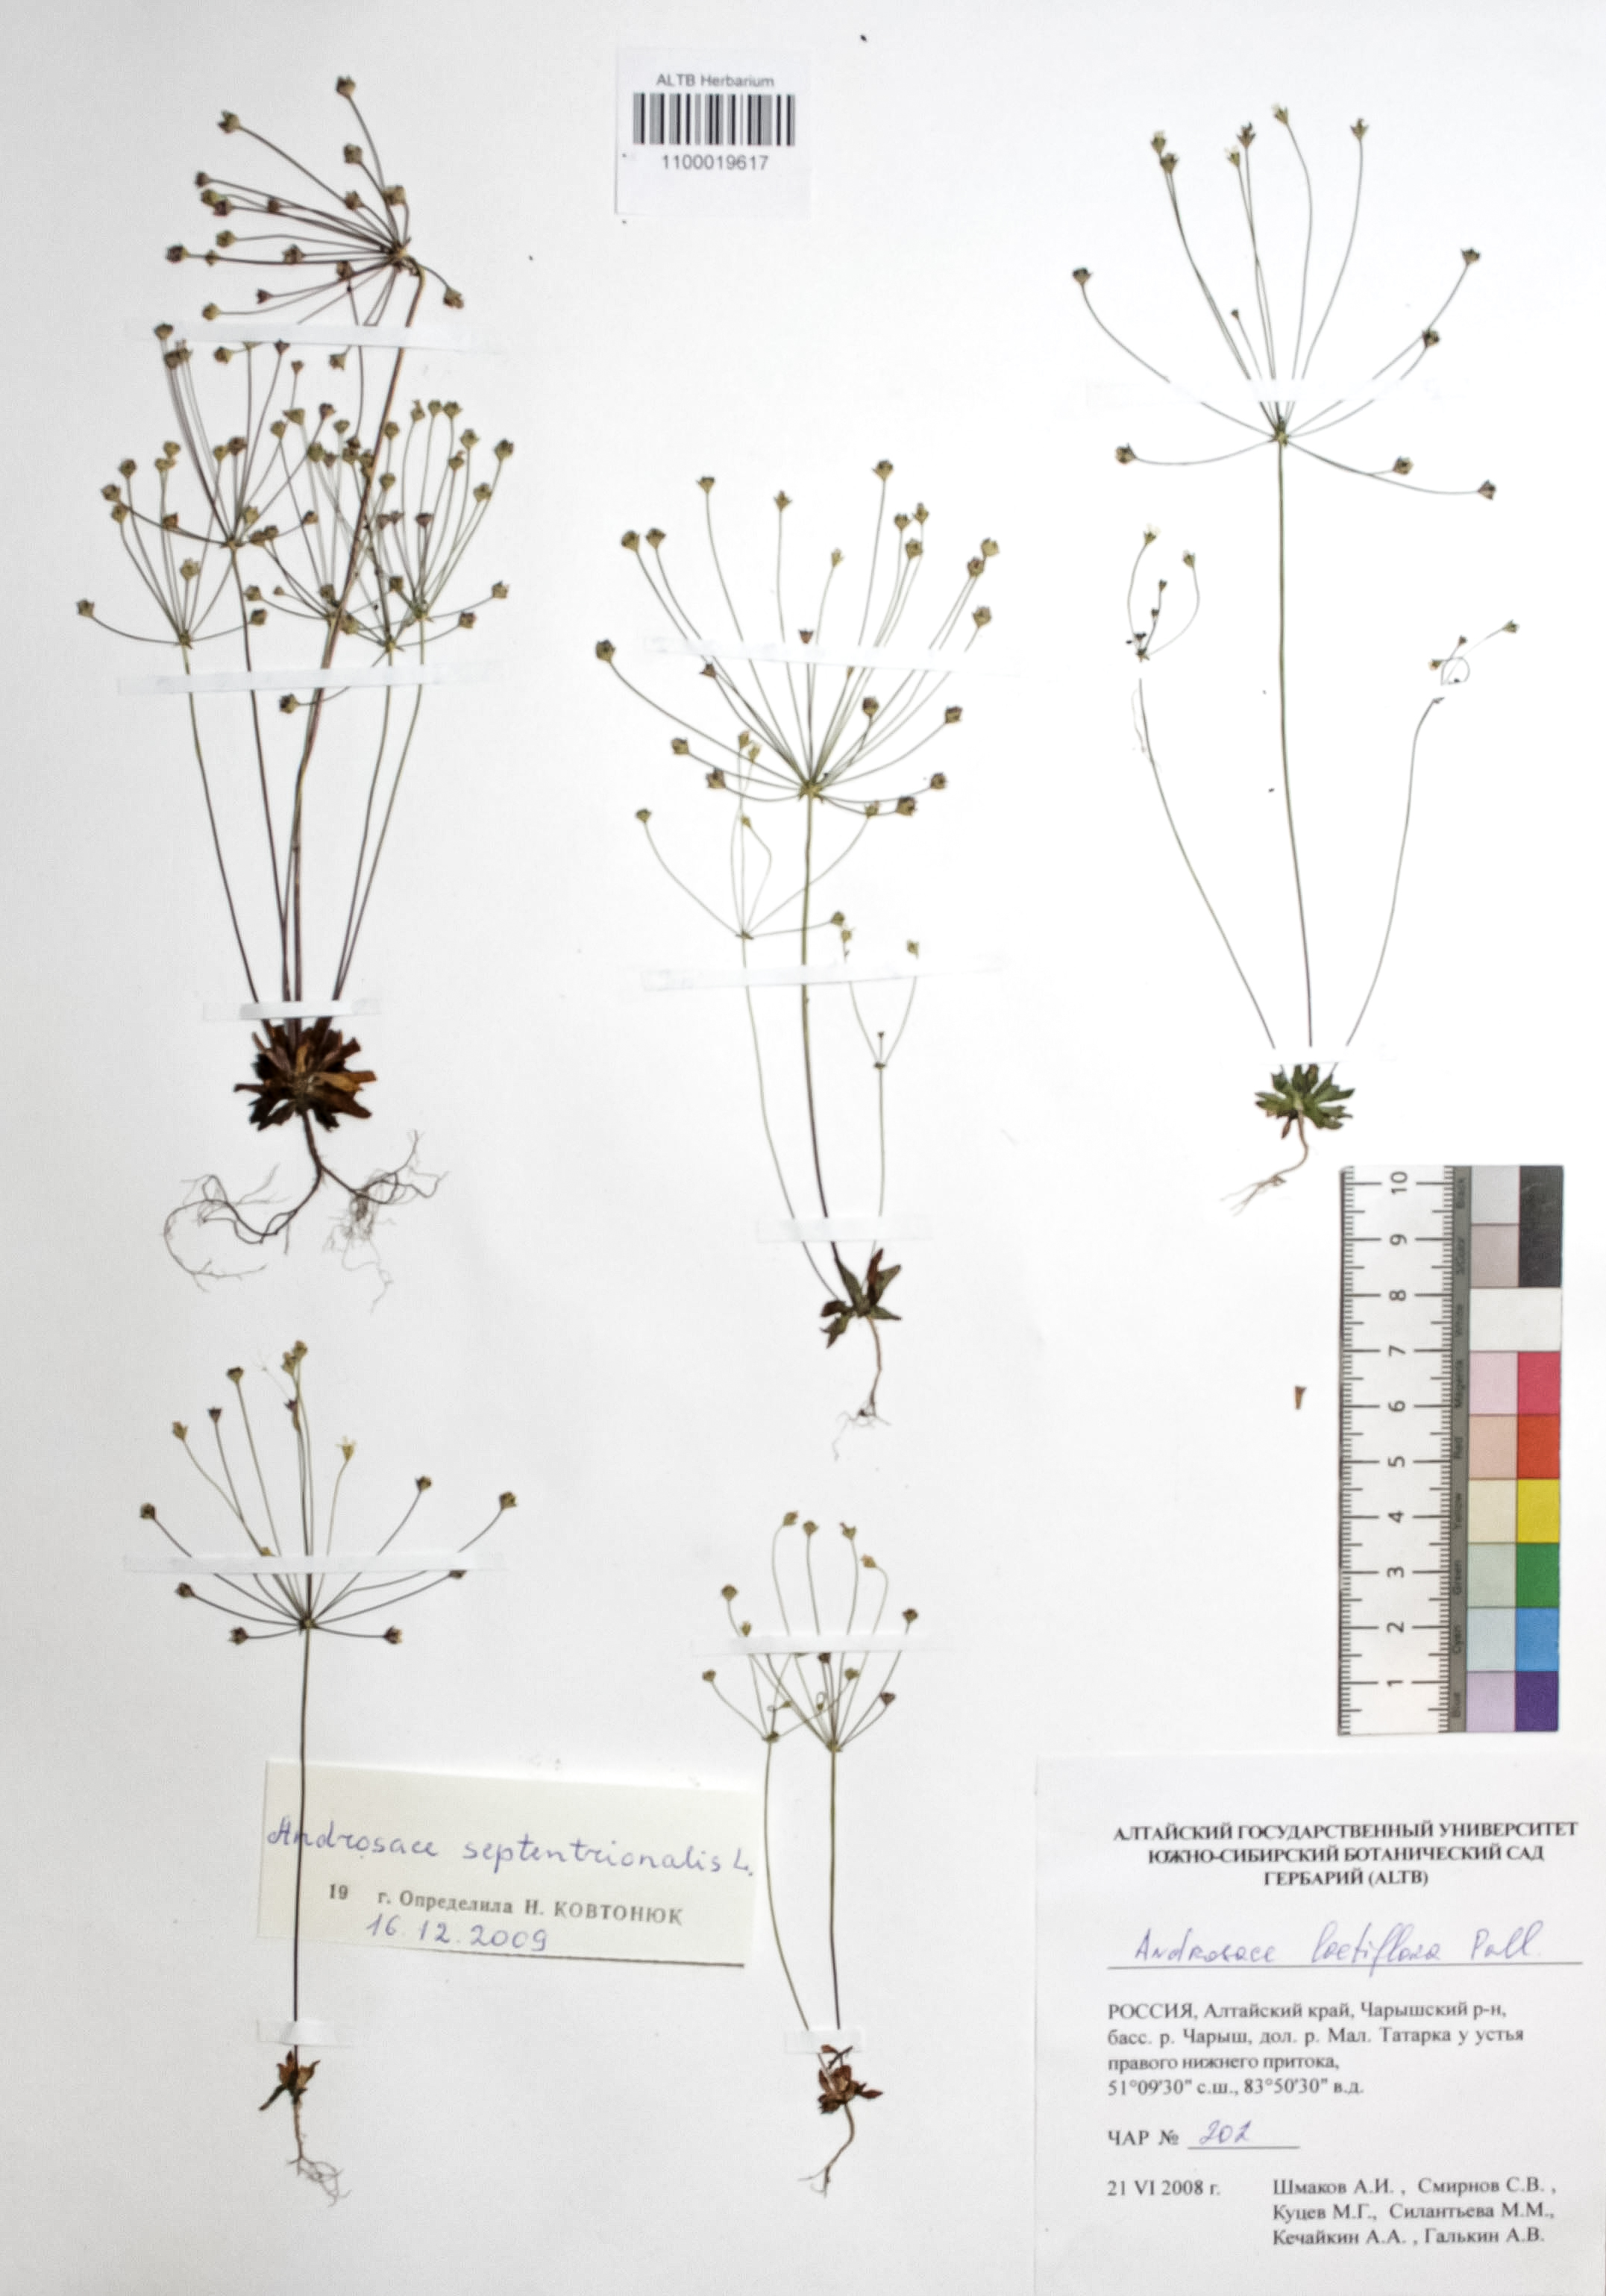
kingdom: Plantae
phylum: Tracheophyta
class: Magnoliopsida
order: Ericales
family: Primulaceae
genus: Androsace
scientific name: Androsace septentrionalis
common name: Hairy northern fairy-candelabra
